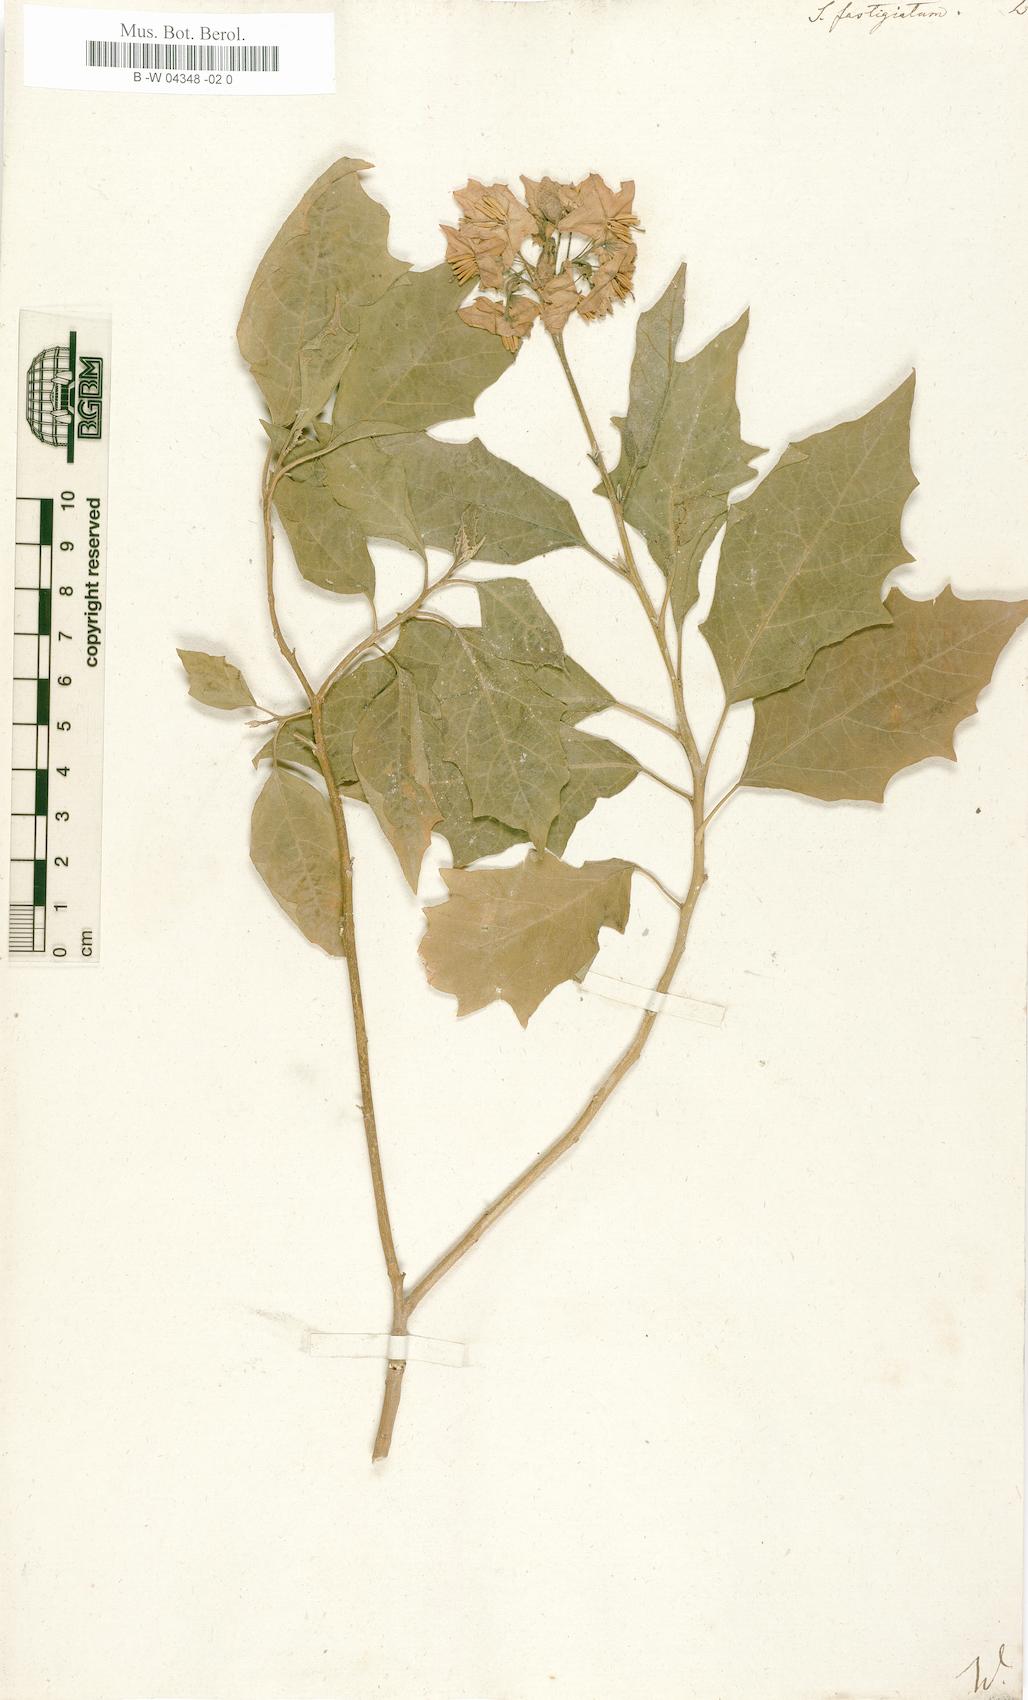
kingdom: Plantae
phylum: Tracheophyta
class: Magnoliopsida
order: Solanales
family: Solanaceae
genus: Solanum
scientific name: Solanum bonariense
